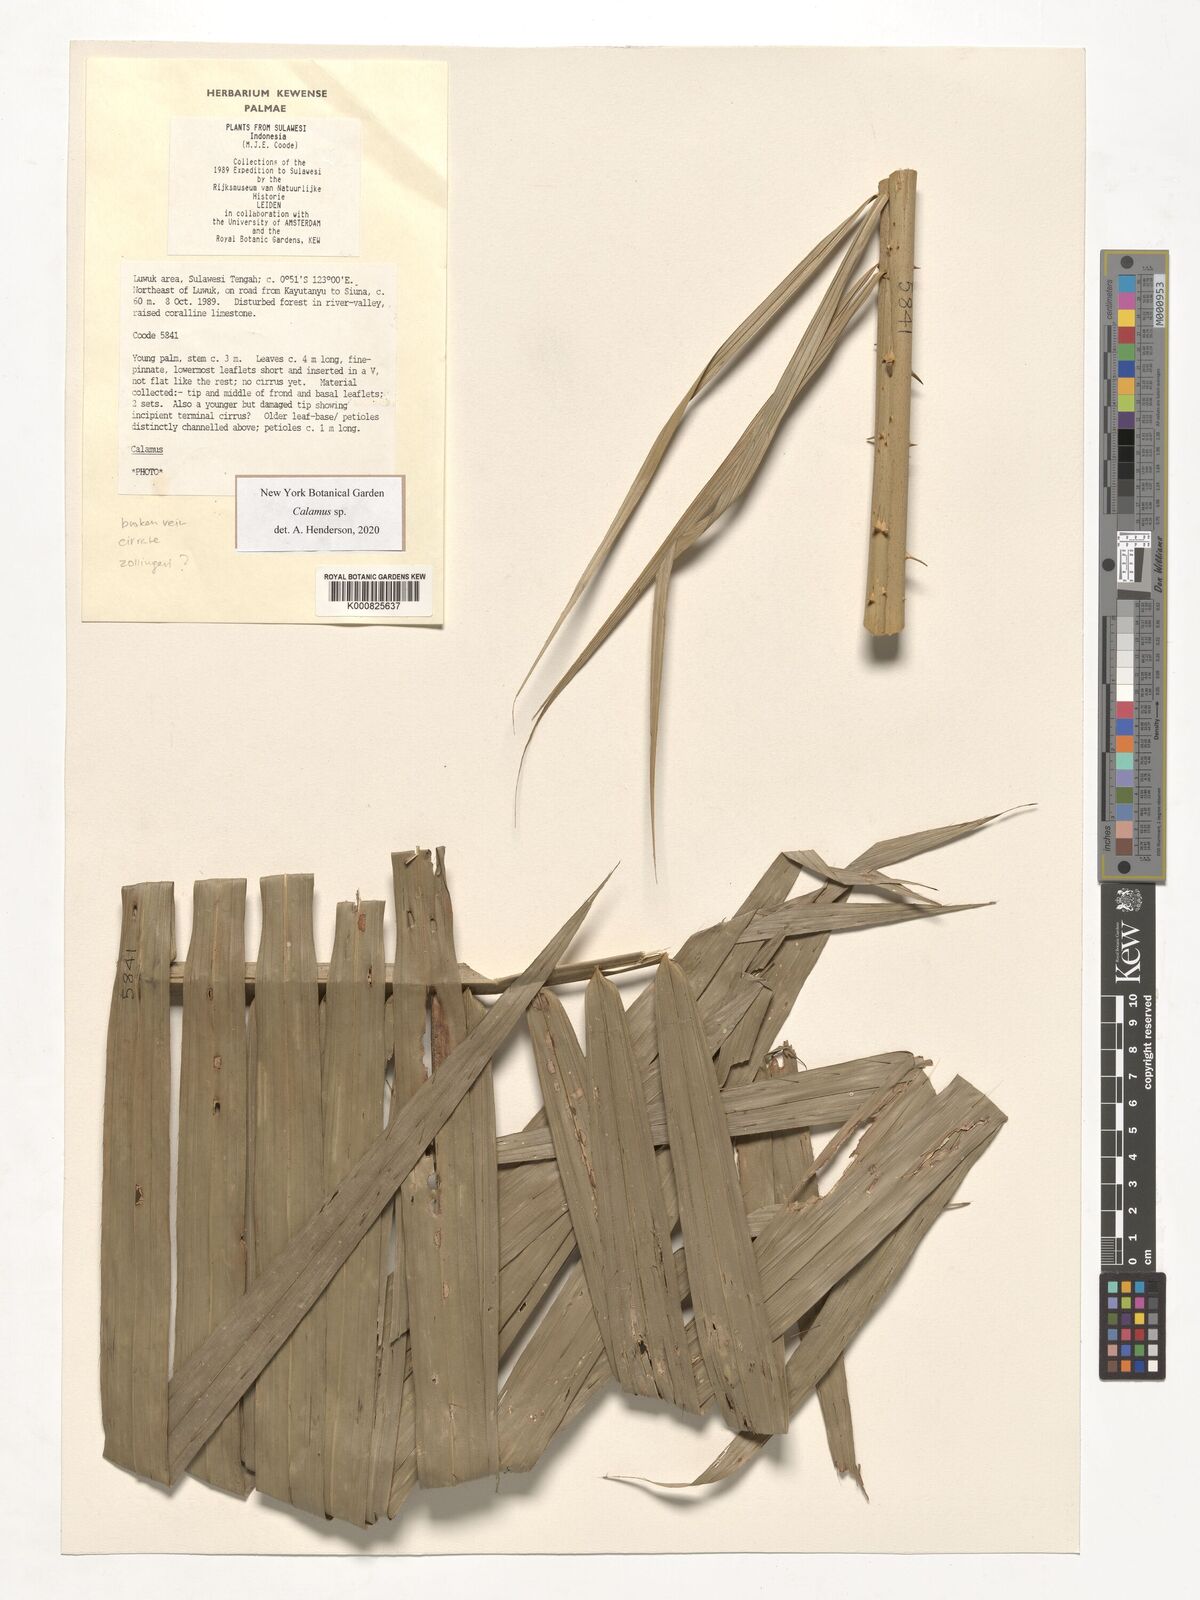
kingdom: Plantae
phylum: Tracheophyta
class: Liliopsida
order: Arecales
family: Arecaceae
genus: Calamus
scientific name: Calamus
